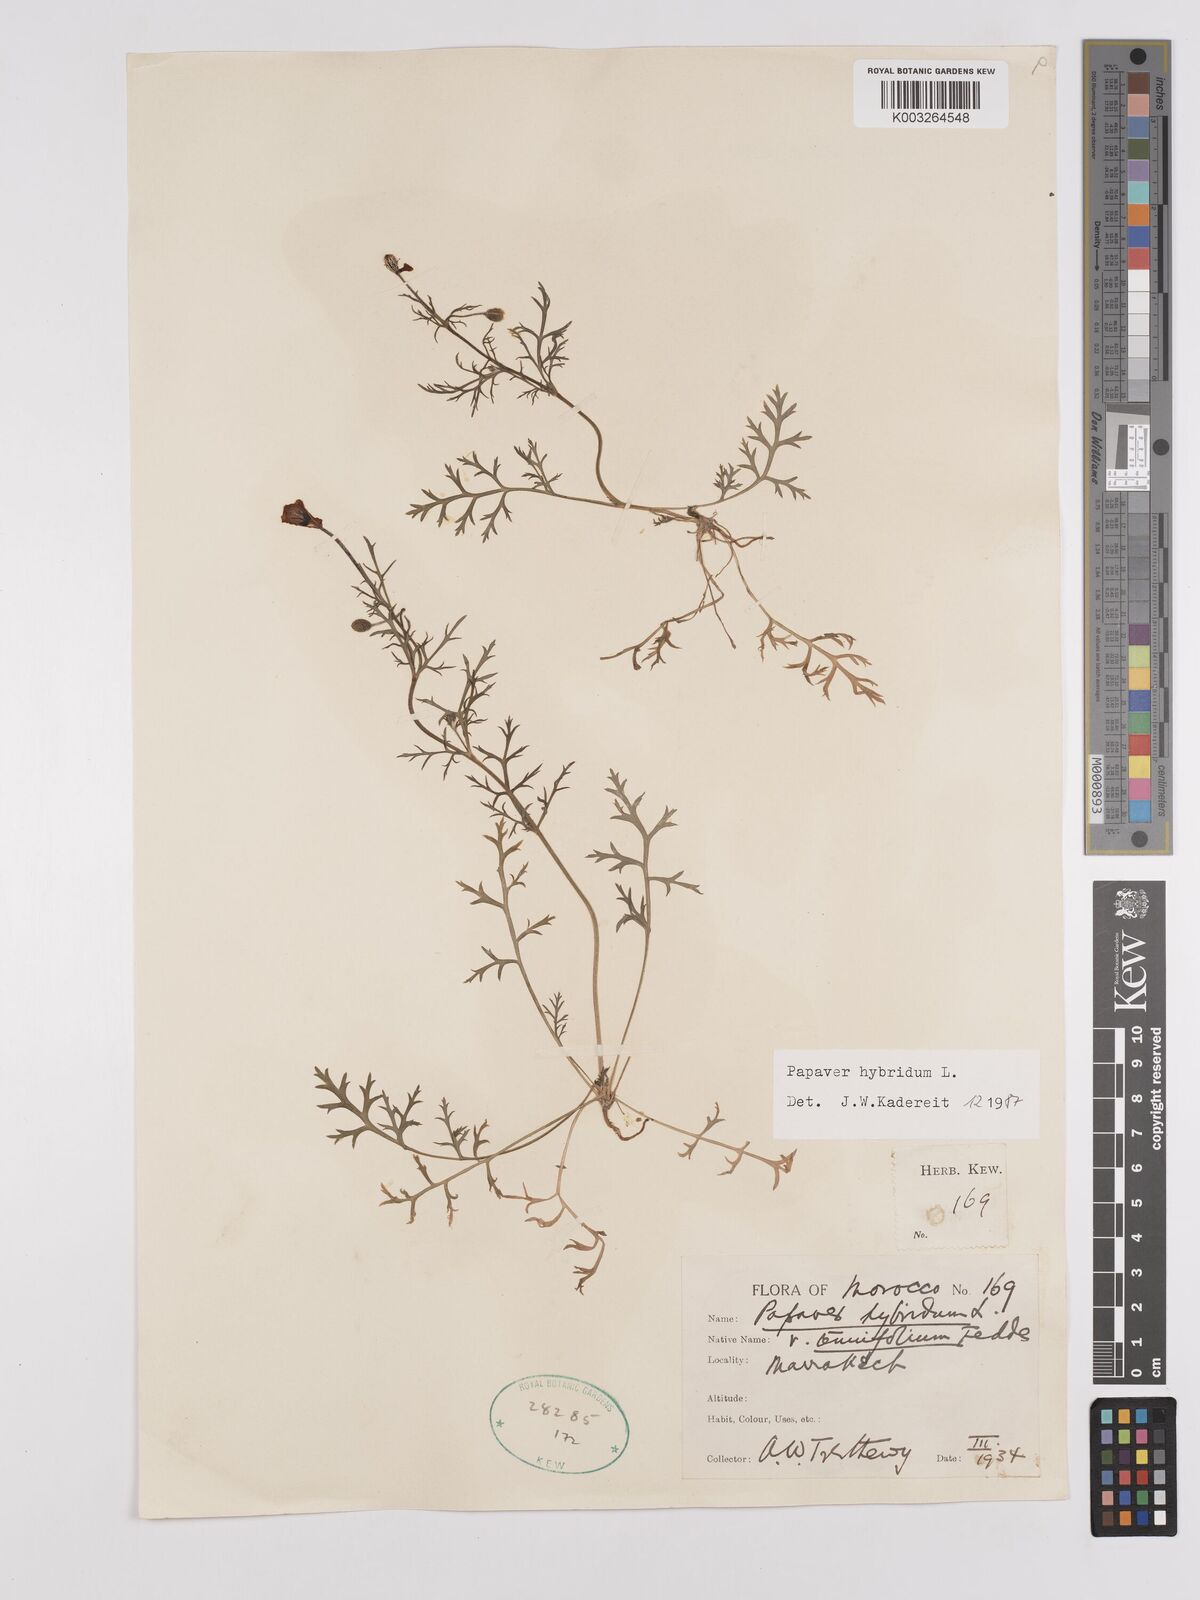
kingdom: Plantae
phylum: Tracheophyta
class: Magnoliopsida
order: Ranunculales
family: Papaveraceae
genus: Papaver
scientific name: Papaver
